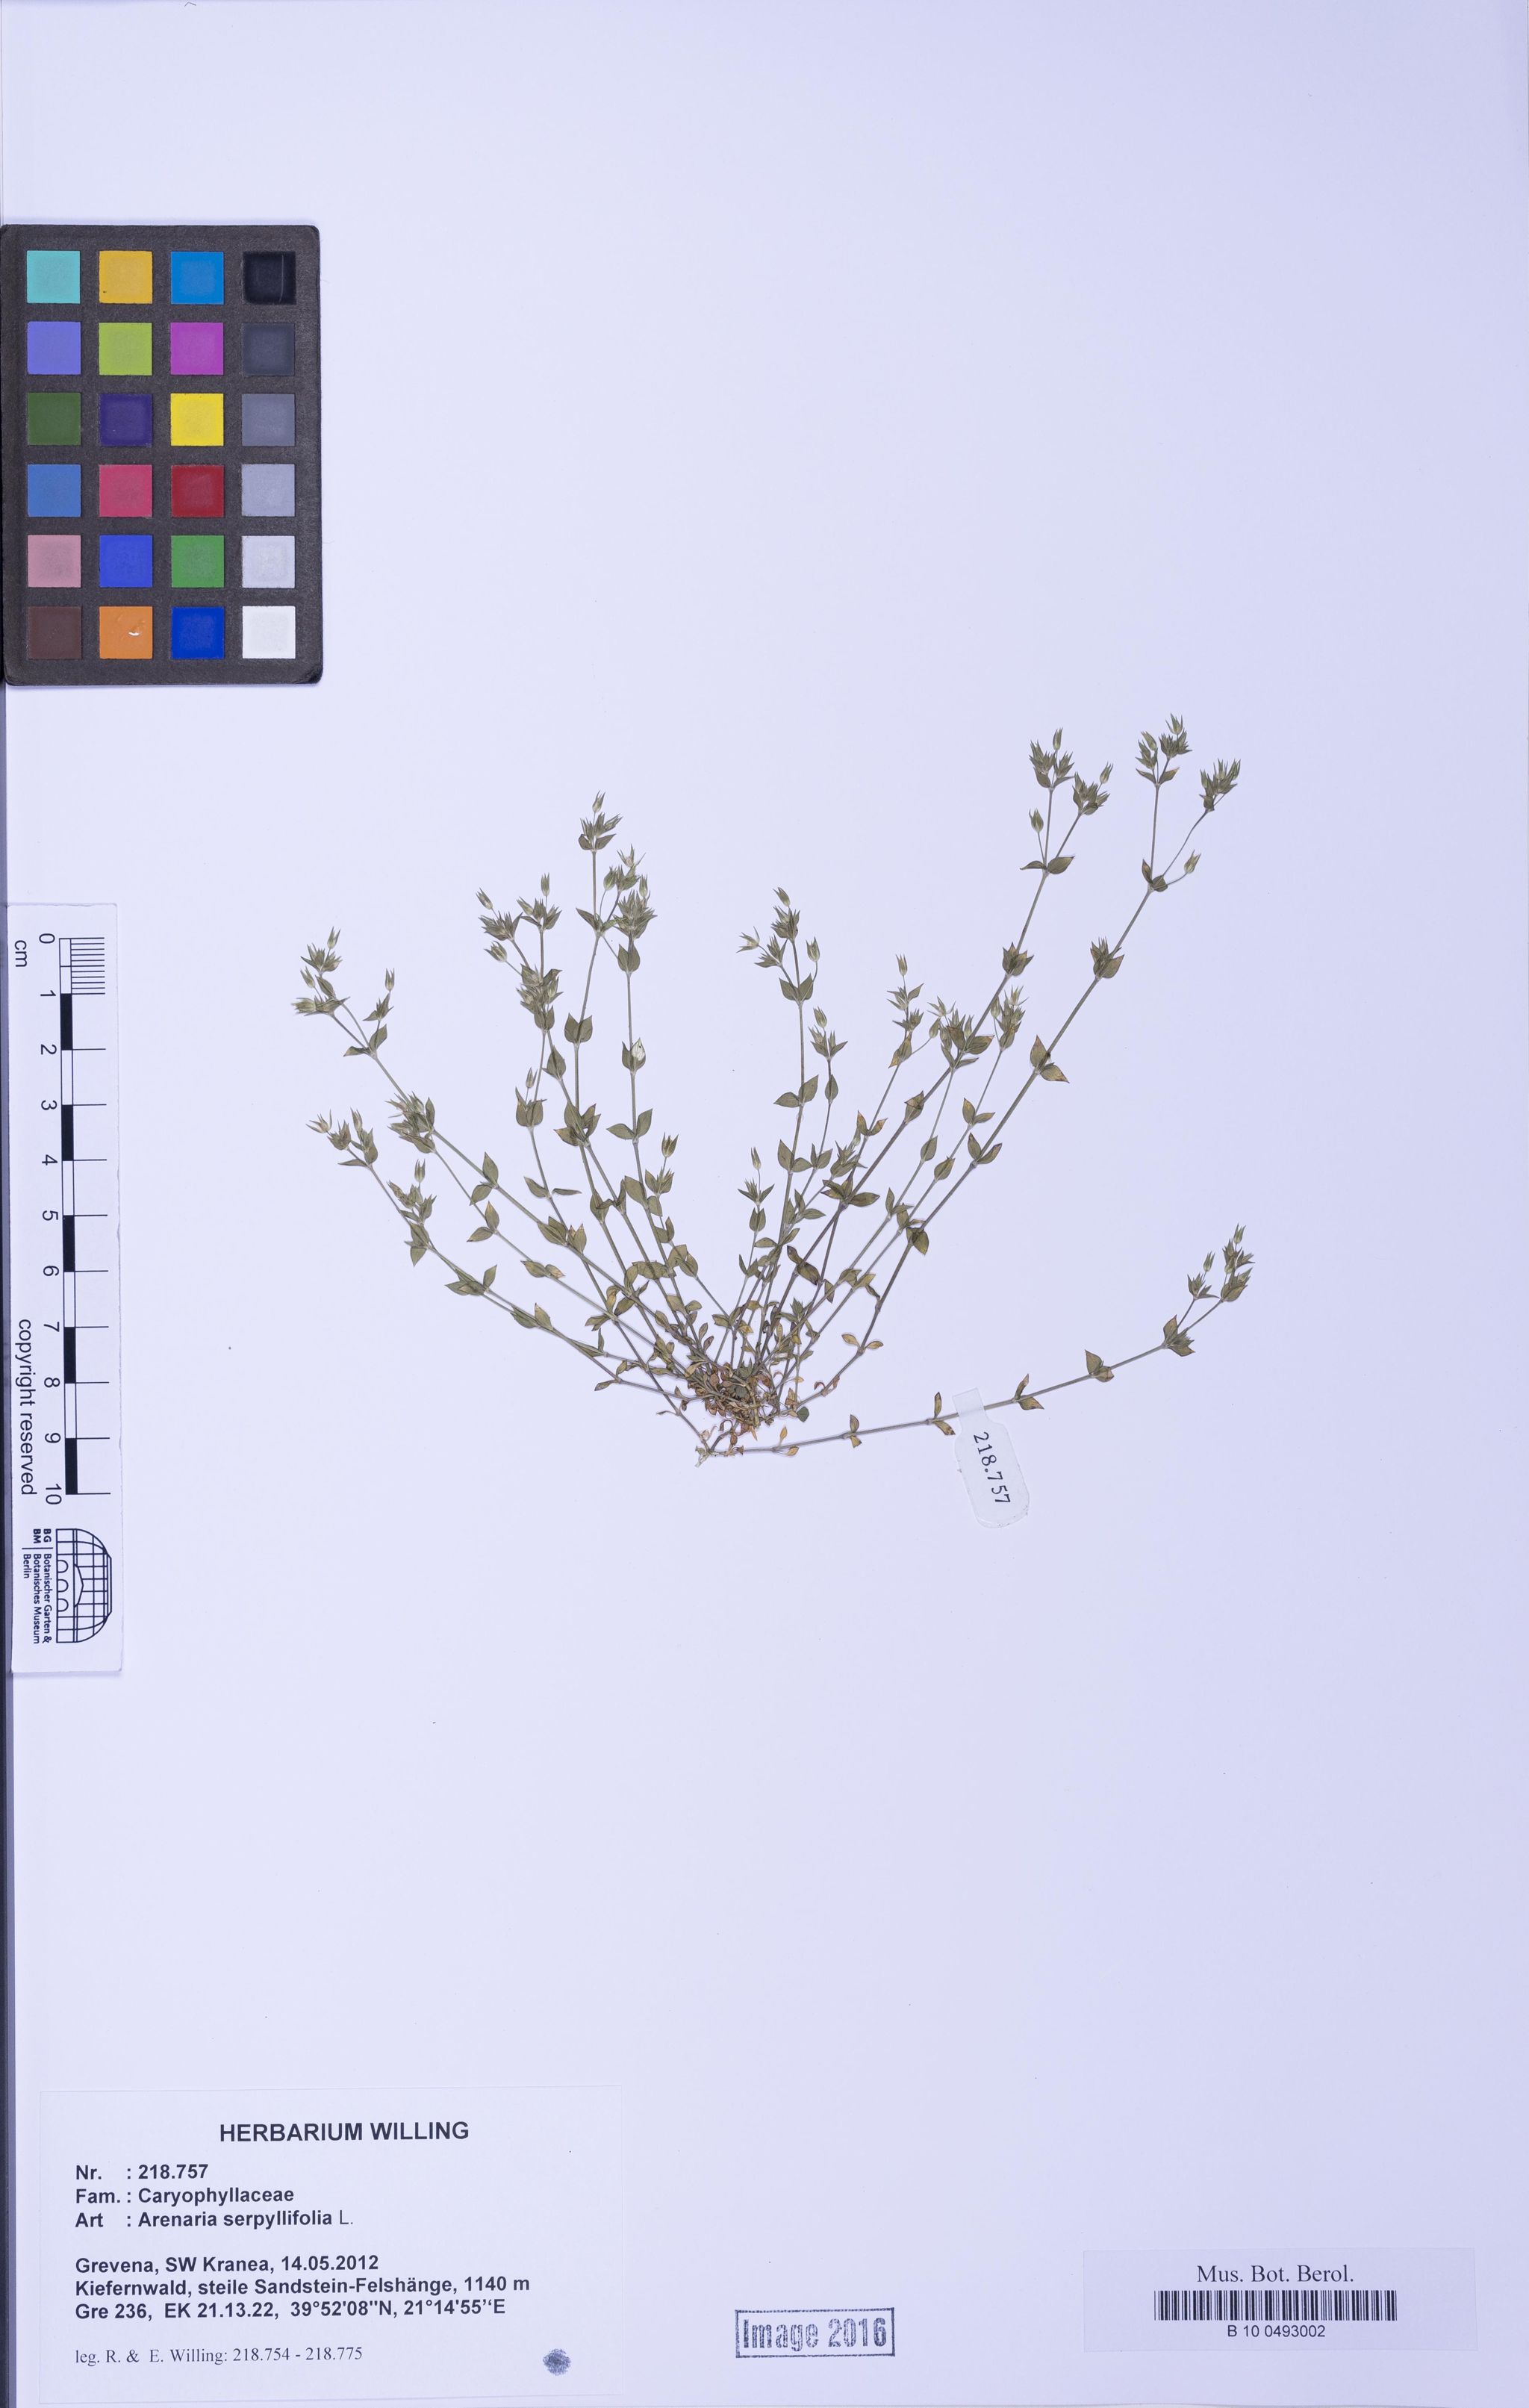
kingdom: Plantae
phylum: Tracheophyta
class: Magnoliopsida
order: Caryophyllales
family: Caryophyllaceae
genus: Arenaria
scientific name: Arenaria serpyllifolia
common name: Thyme-leaved sandwort
